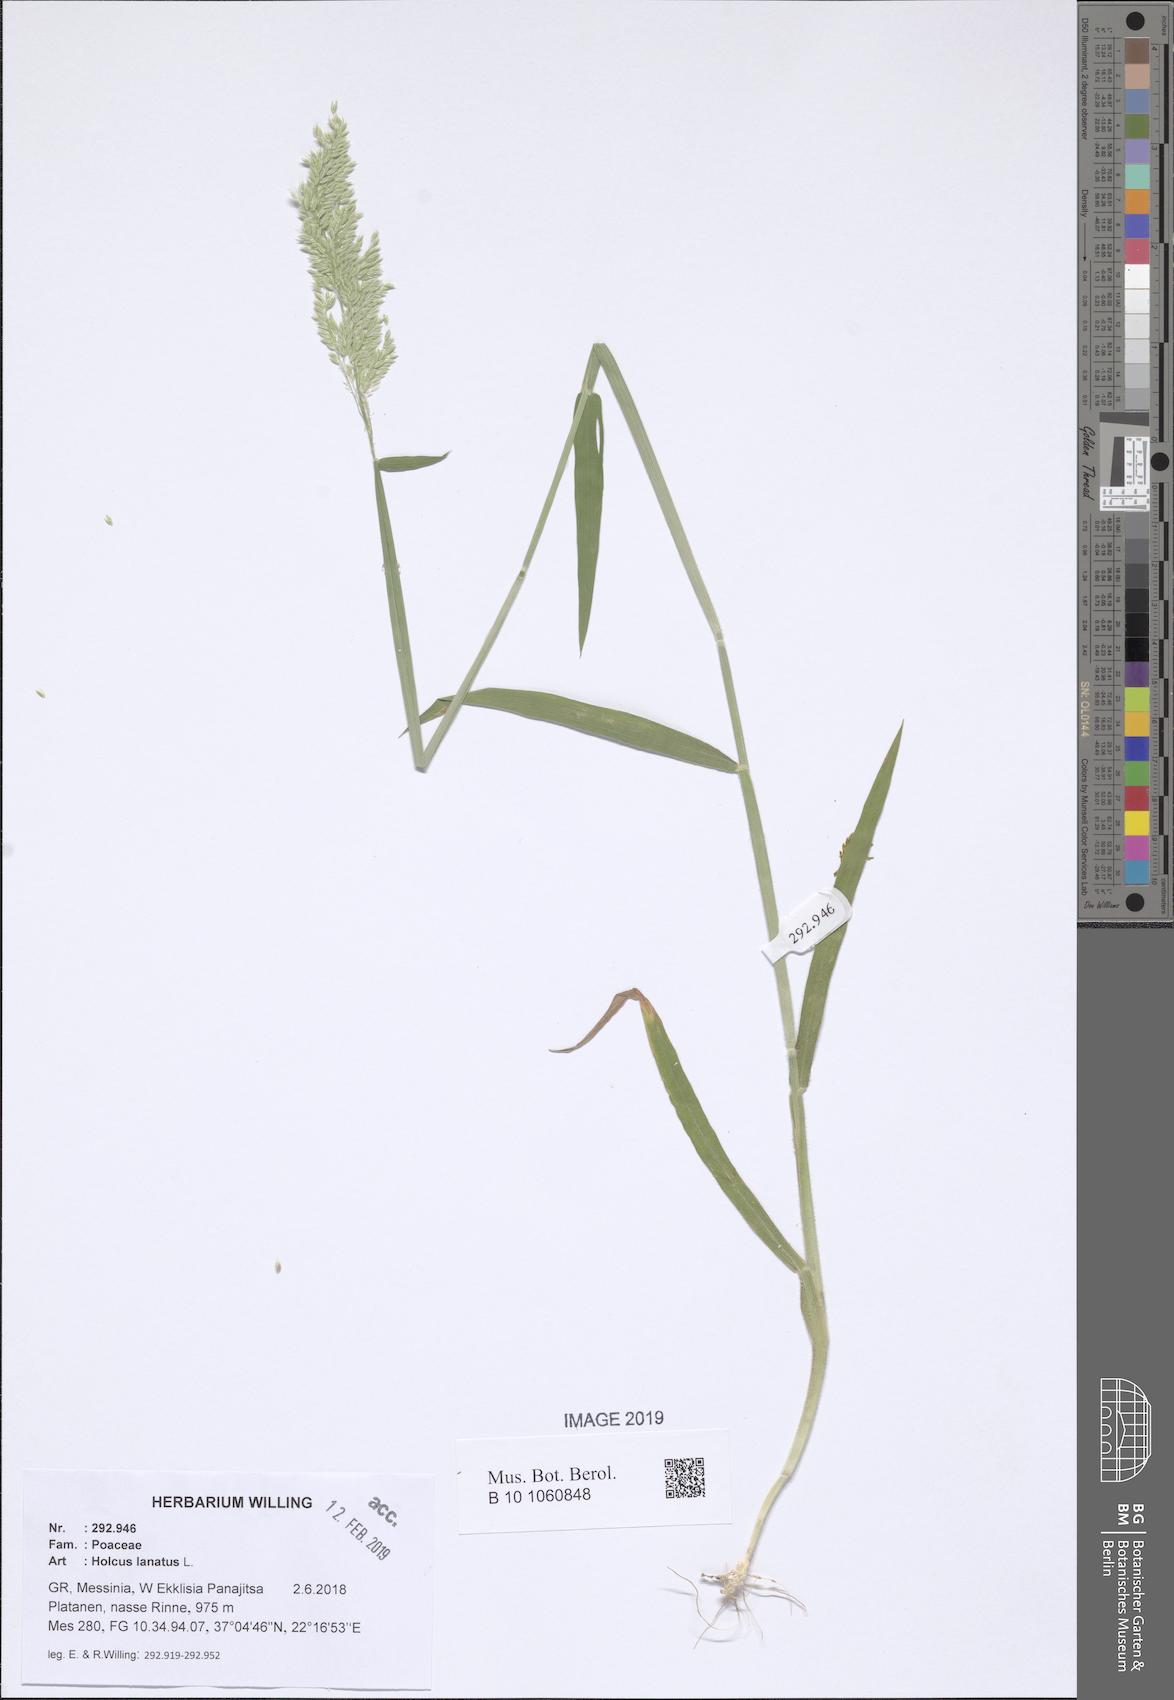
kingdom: Plantae
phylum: Tracheophyta
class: Liliopsida
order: Poales
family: Poaceae
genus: Holcus
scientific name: Holcus lanatus
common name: Yorkshire-fog
